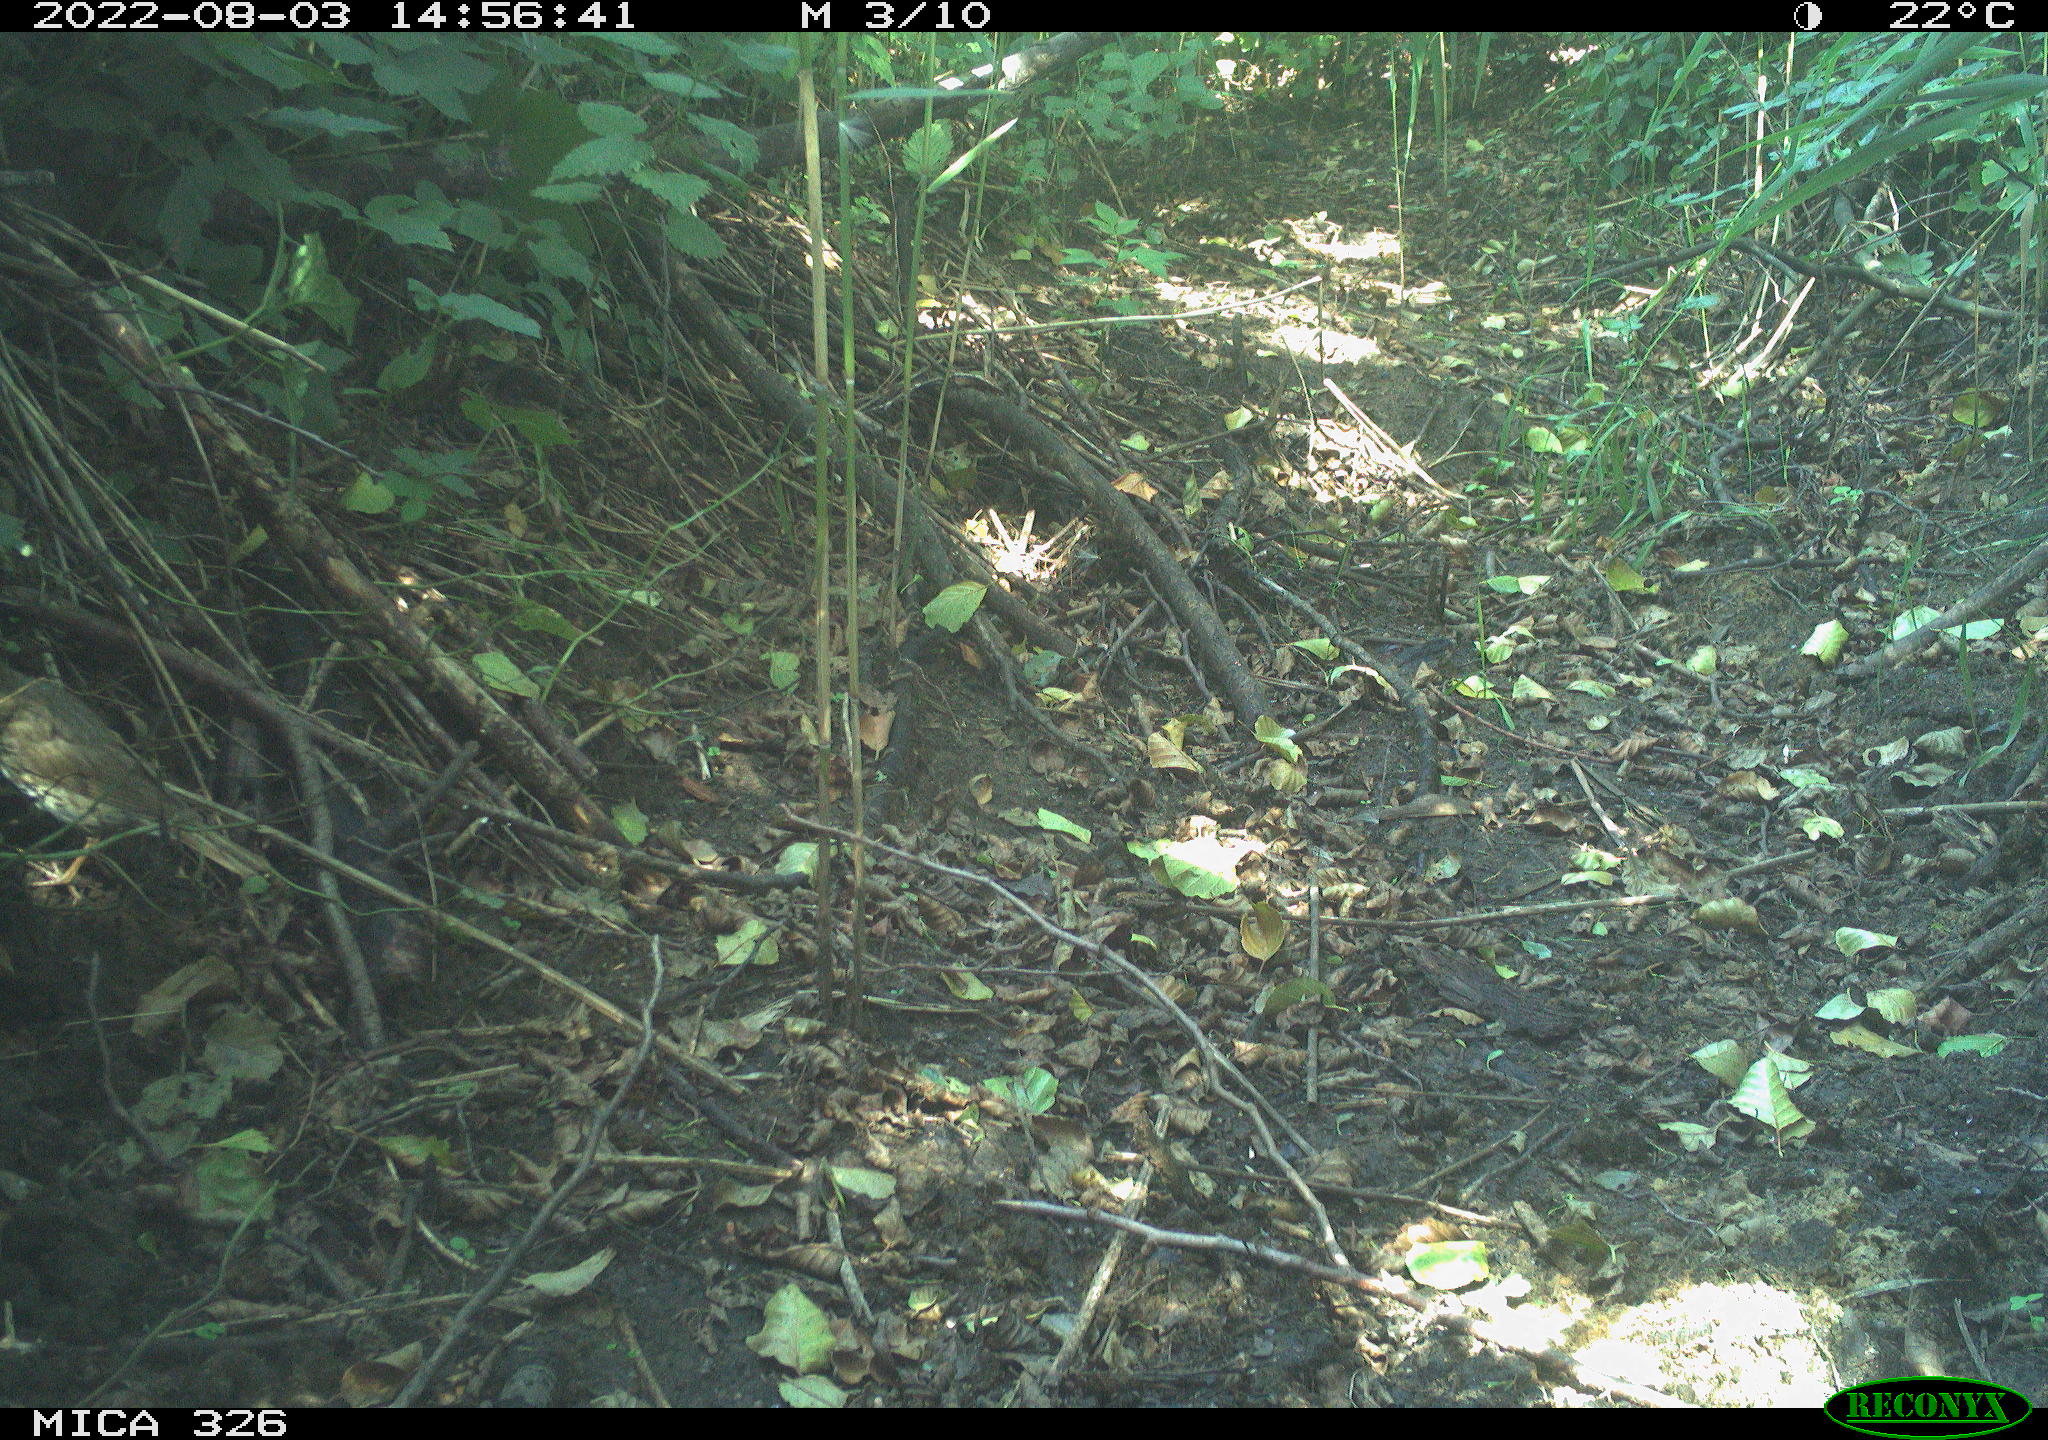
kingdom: Animalia
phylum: Chordata
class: Aves
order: Passeriformes
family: Turdidae
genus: Turdus
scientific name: Turdus philomelos
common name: Song thrush
